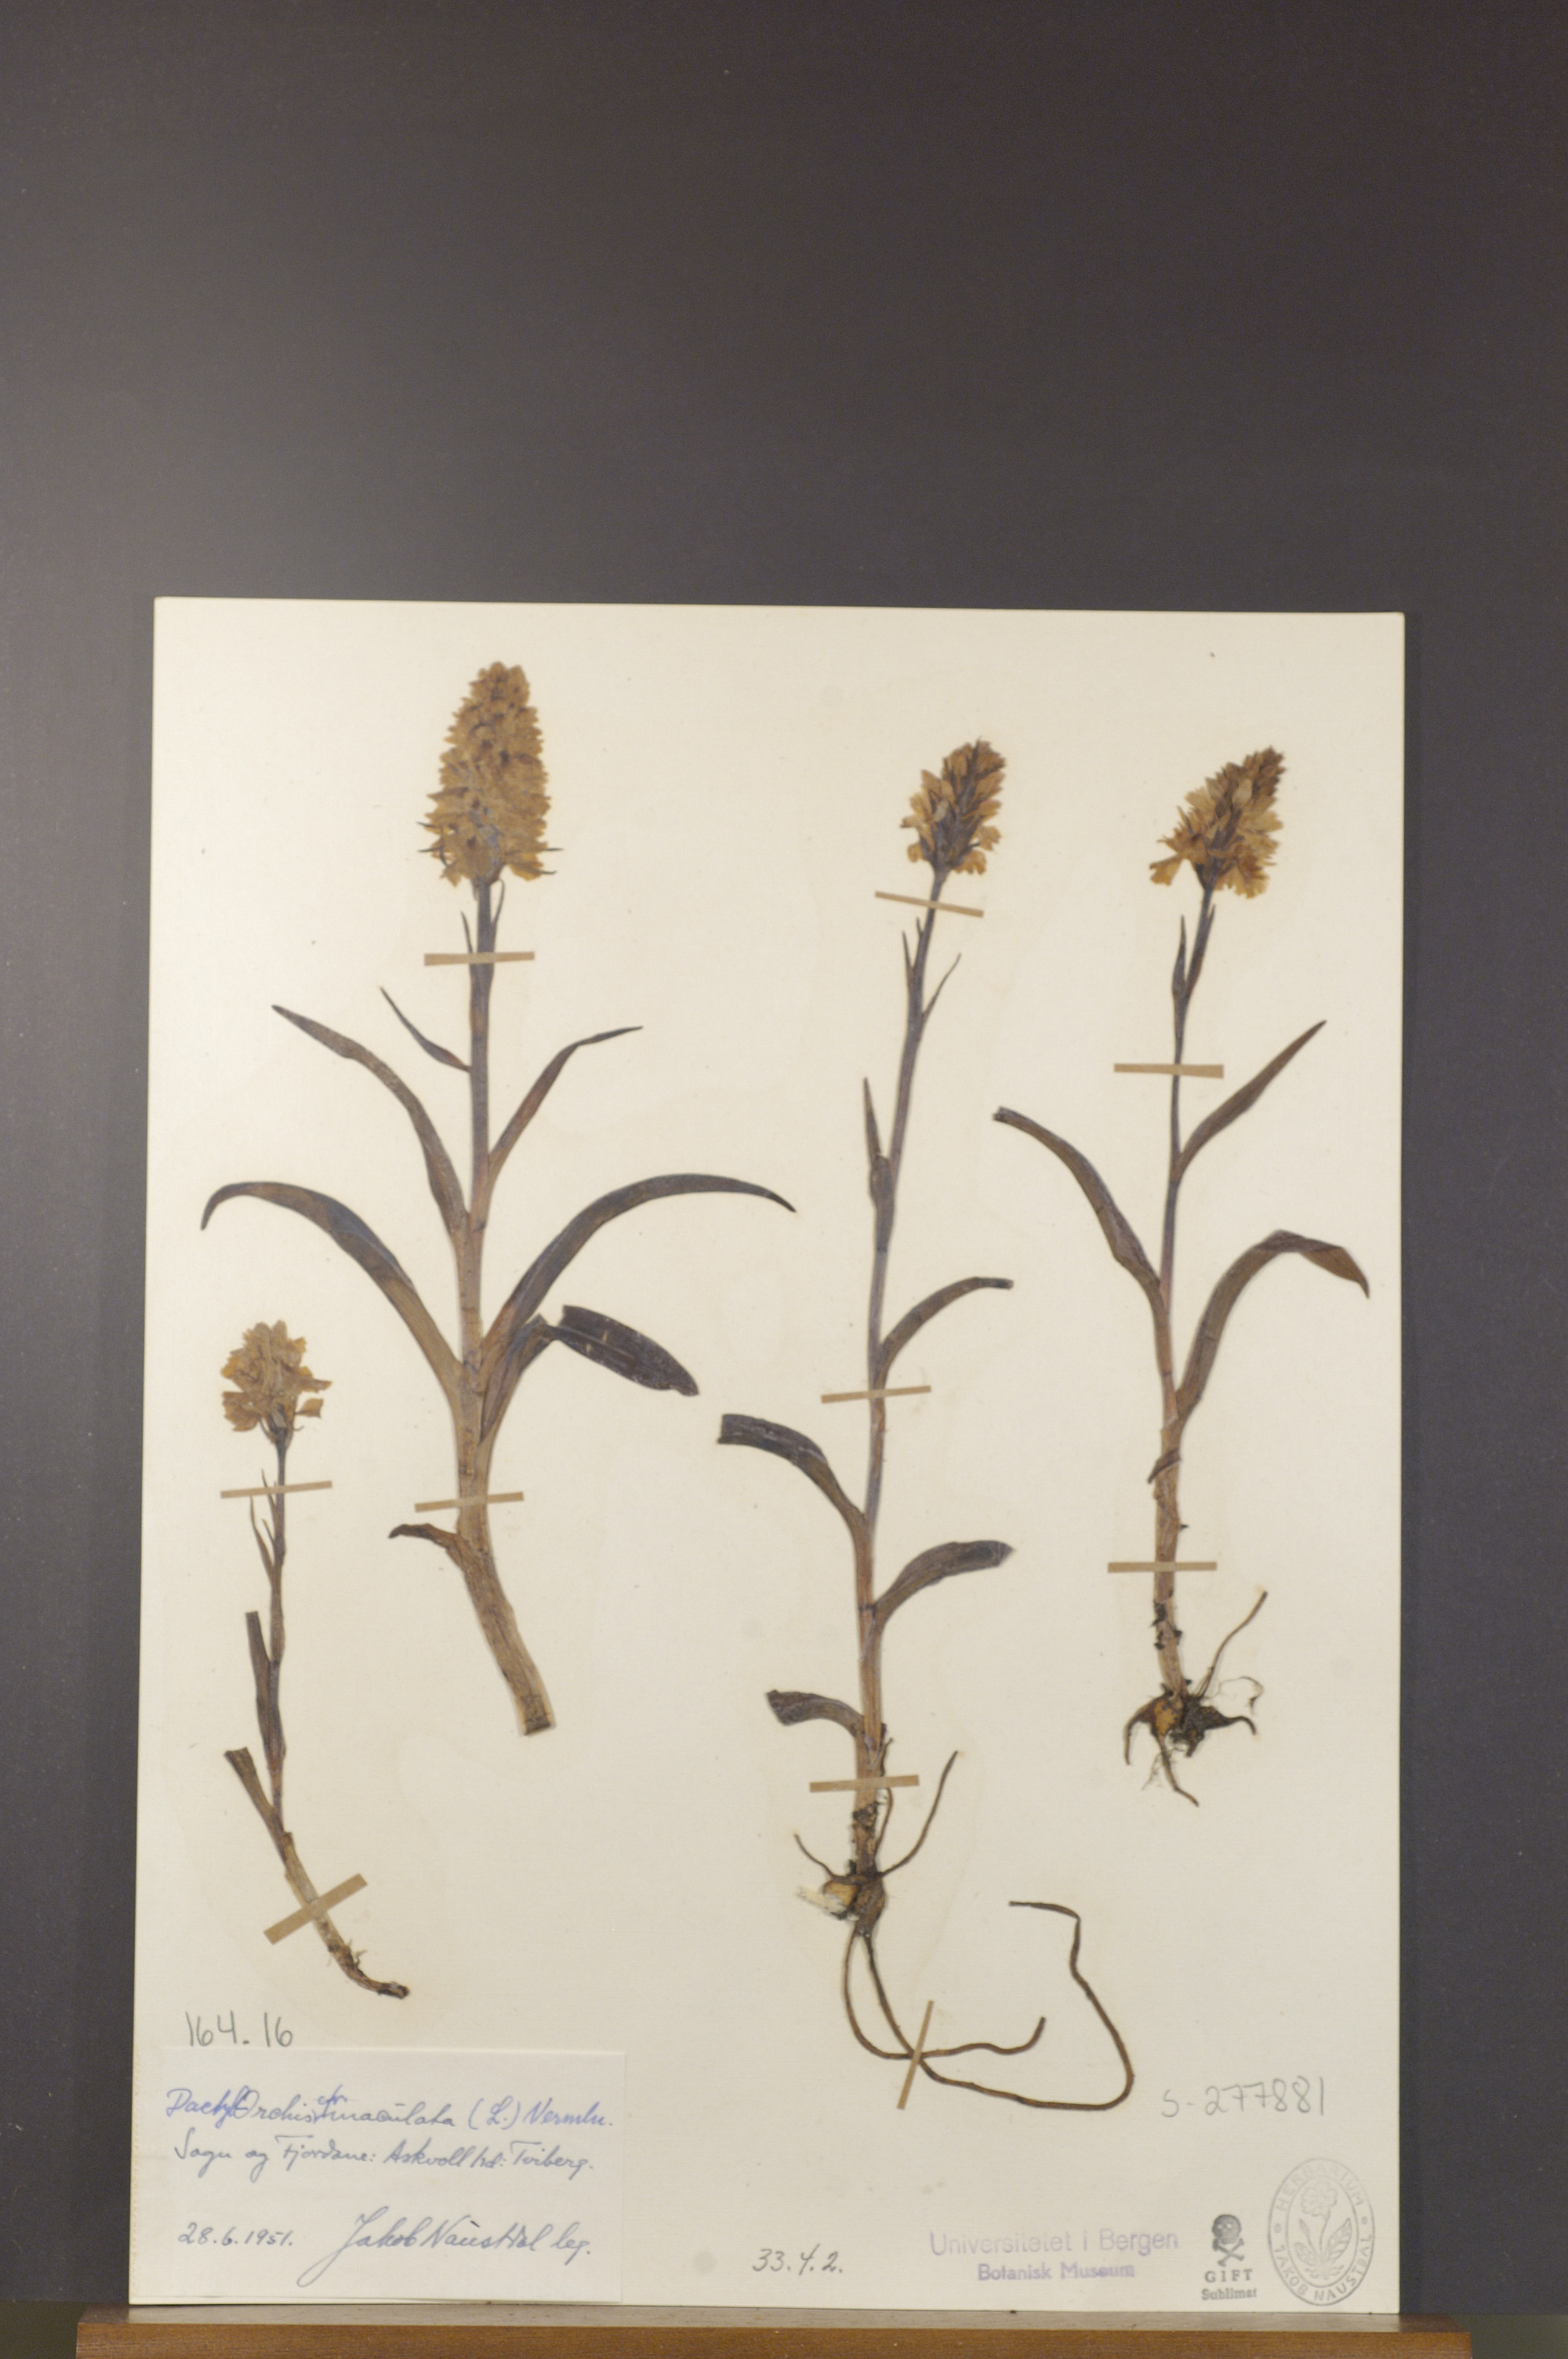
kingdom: Plantae
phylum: Tracheophyta
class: Liliopsida
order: Asparagales
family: Orchidaceae
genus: Dactylorhiza
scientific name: Dactylorhiza maculata
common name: Heath spotted-orchid
